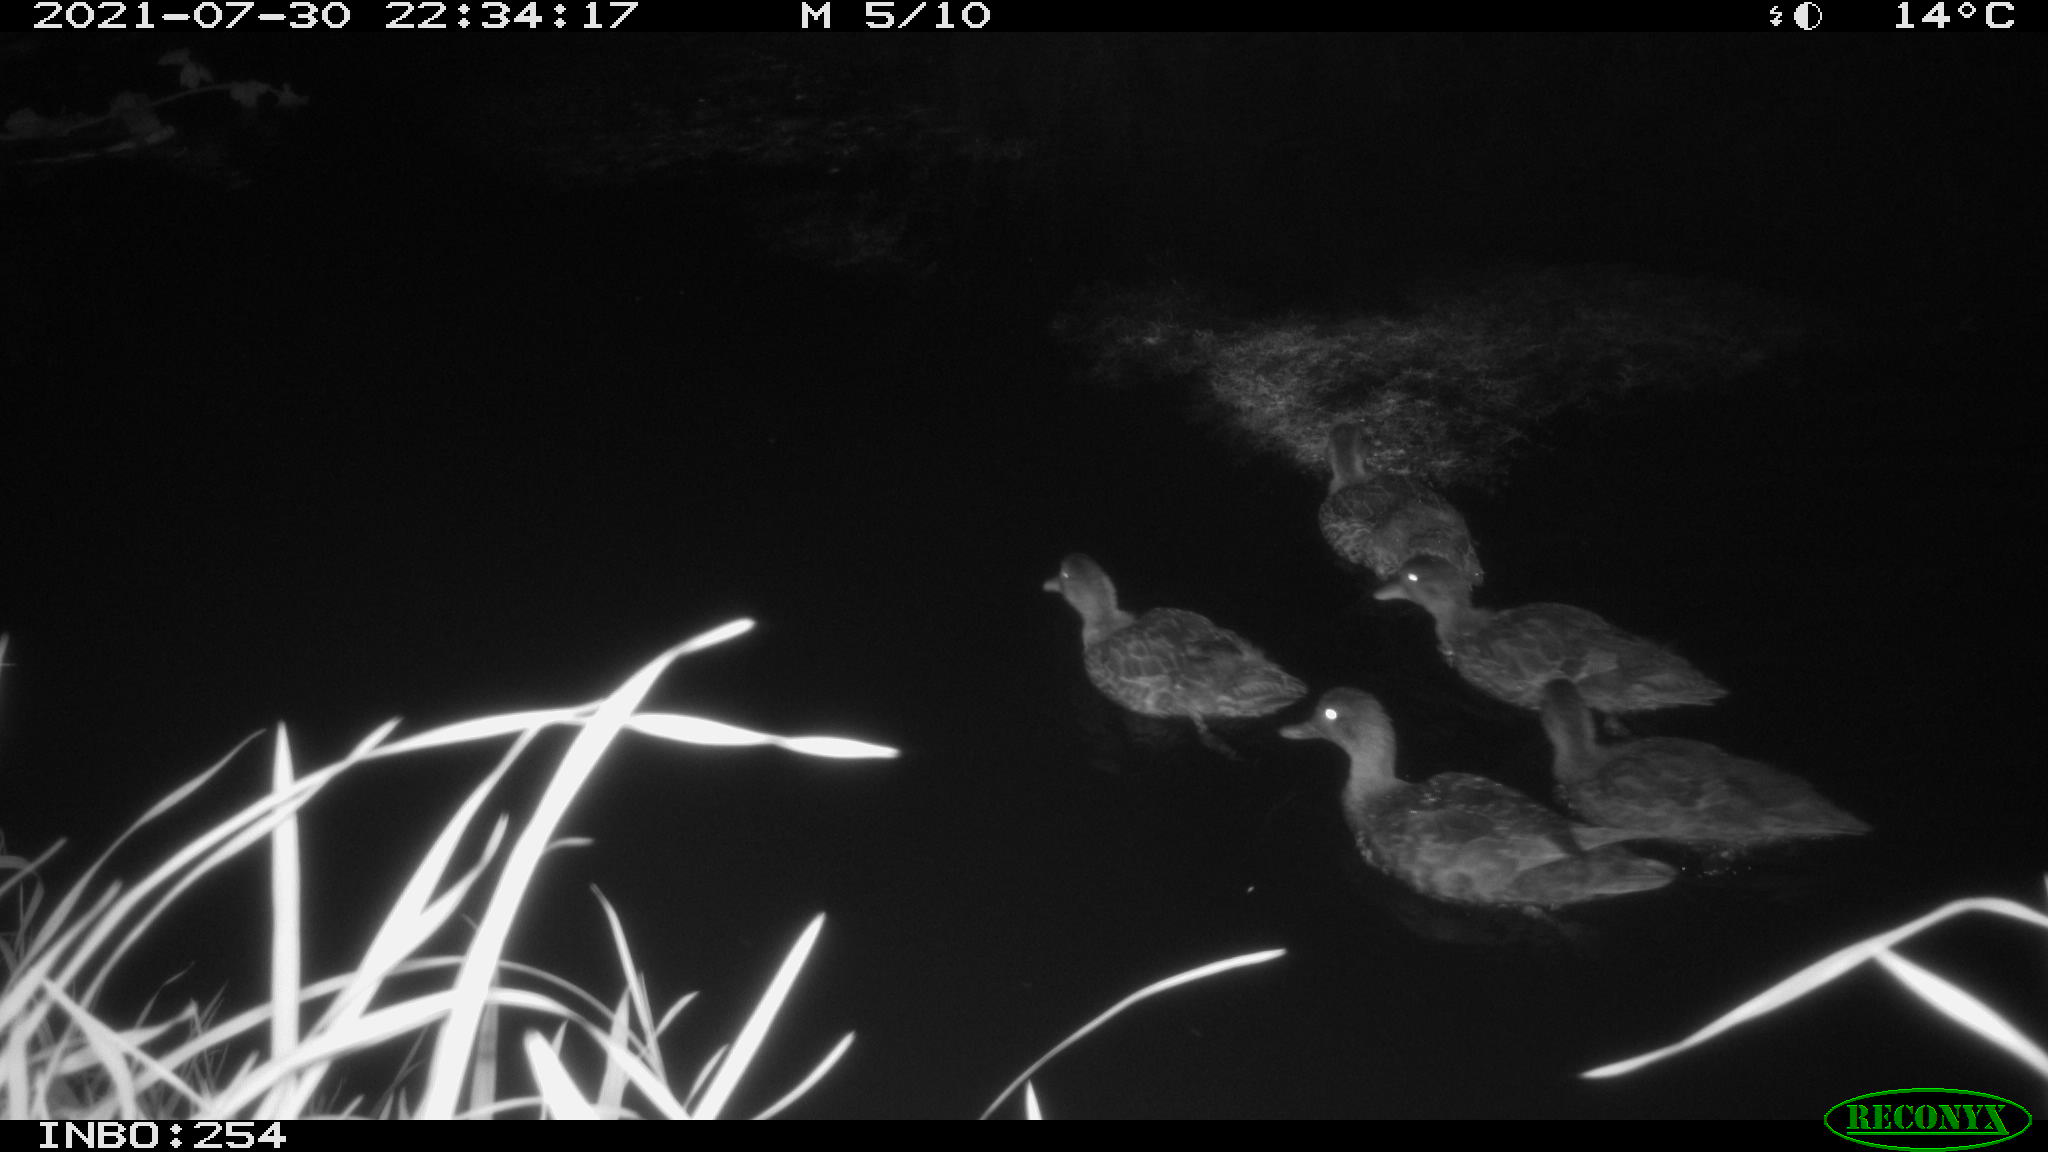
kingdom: Animalia
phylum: Chordata
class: Aves
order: Anseriformes
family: Anatidae
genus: Anas
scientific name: Anas platyrhynchos
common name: Mallard
